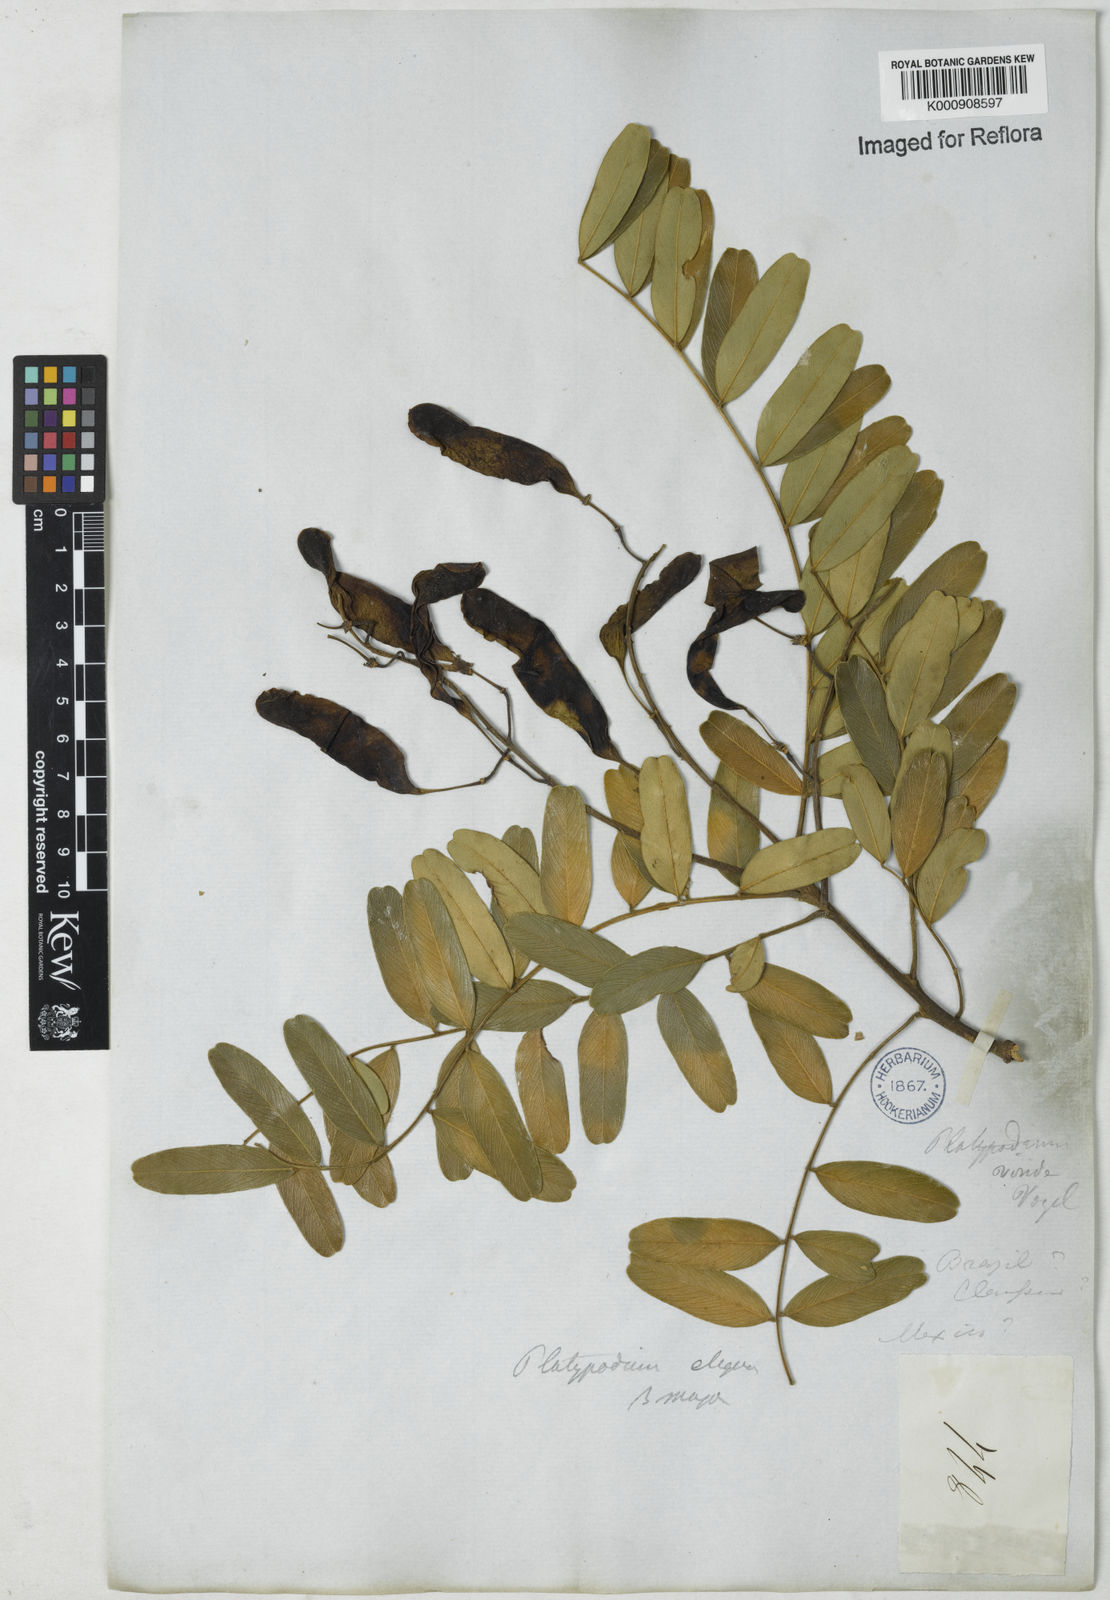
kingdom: Plantae
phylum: Tracheophyta
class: Magnoliopsida
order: Fabales
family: Fabaceae
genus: Platypodium
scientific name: Platypodium
